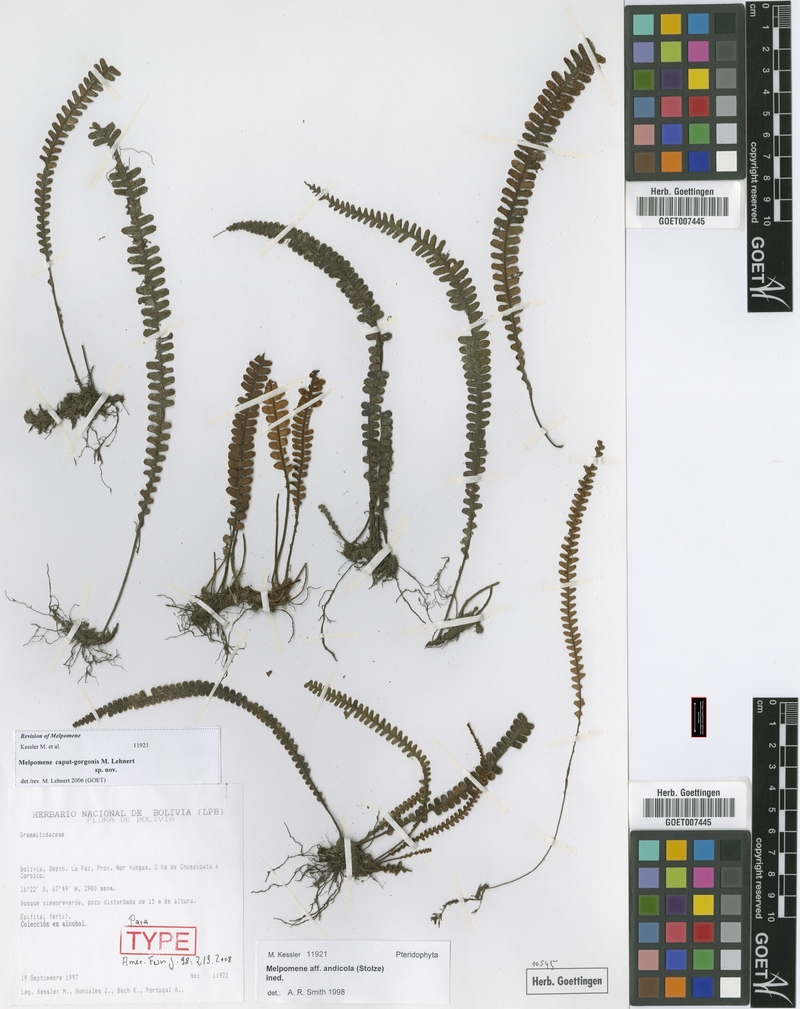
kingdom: Plantae
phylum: Tracheophyta
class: Polypodiopsida
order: Polypodiales
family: Polypodiaceae
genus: Melpomene
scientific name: Melpomene caput-gorgonis
